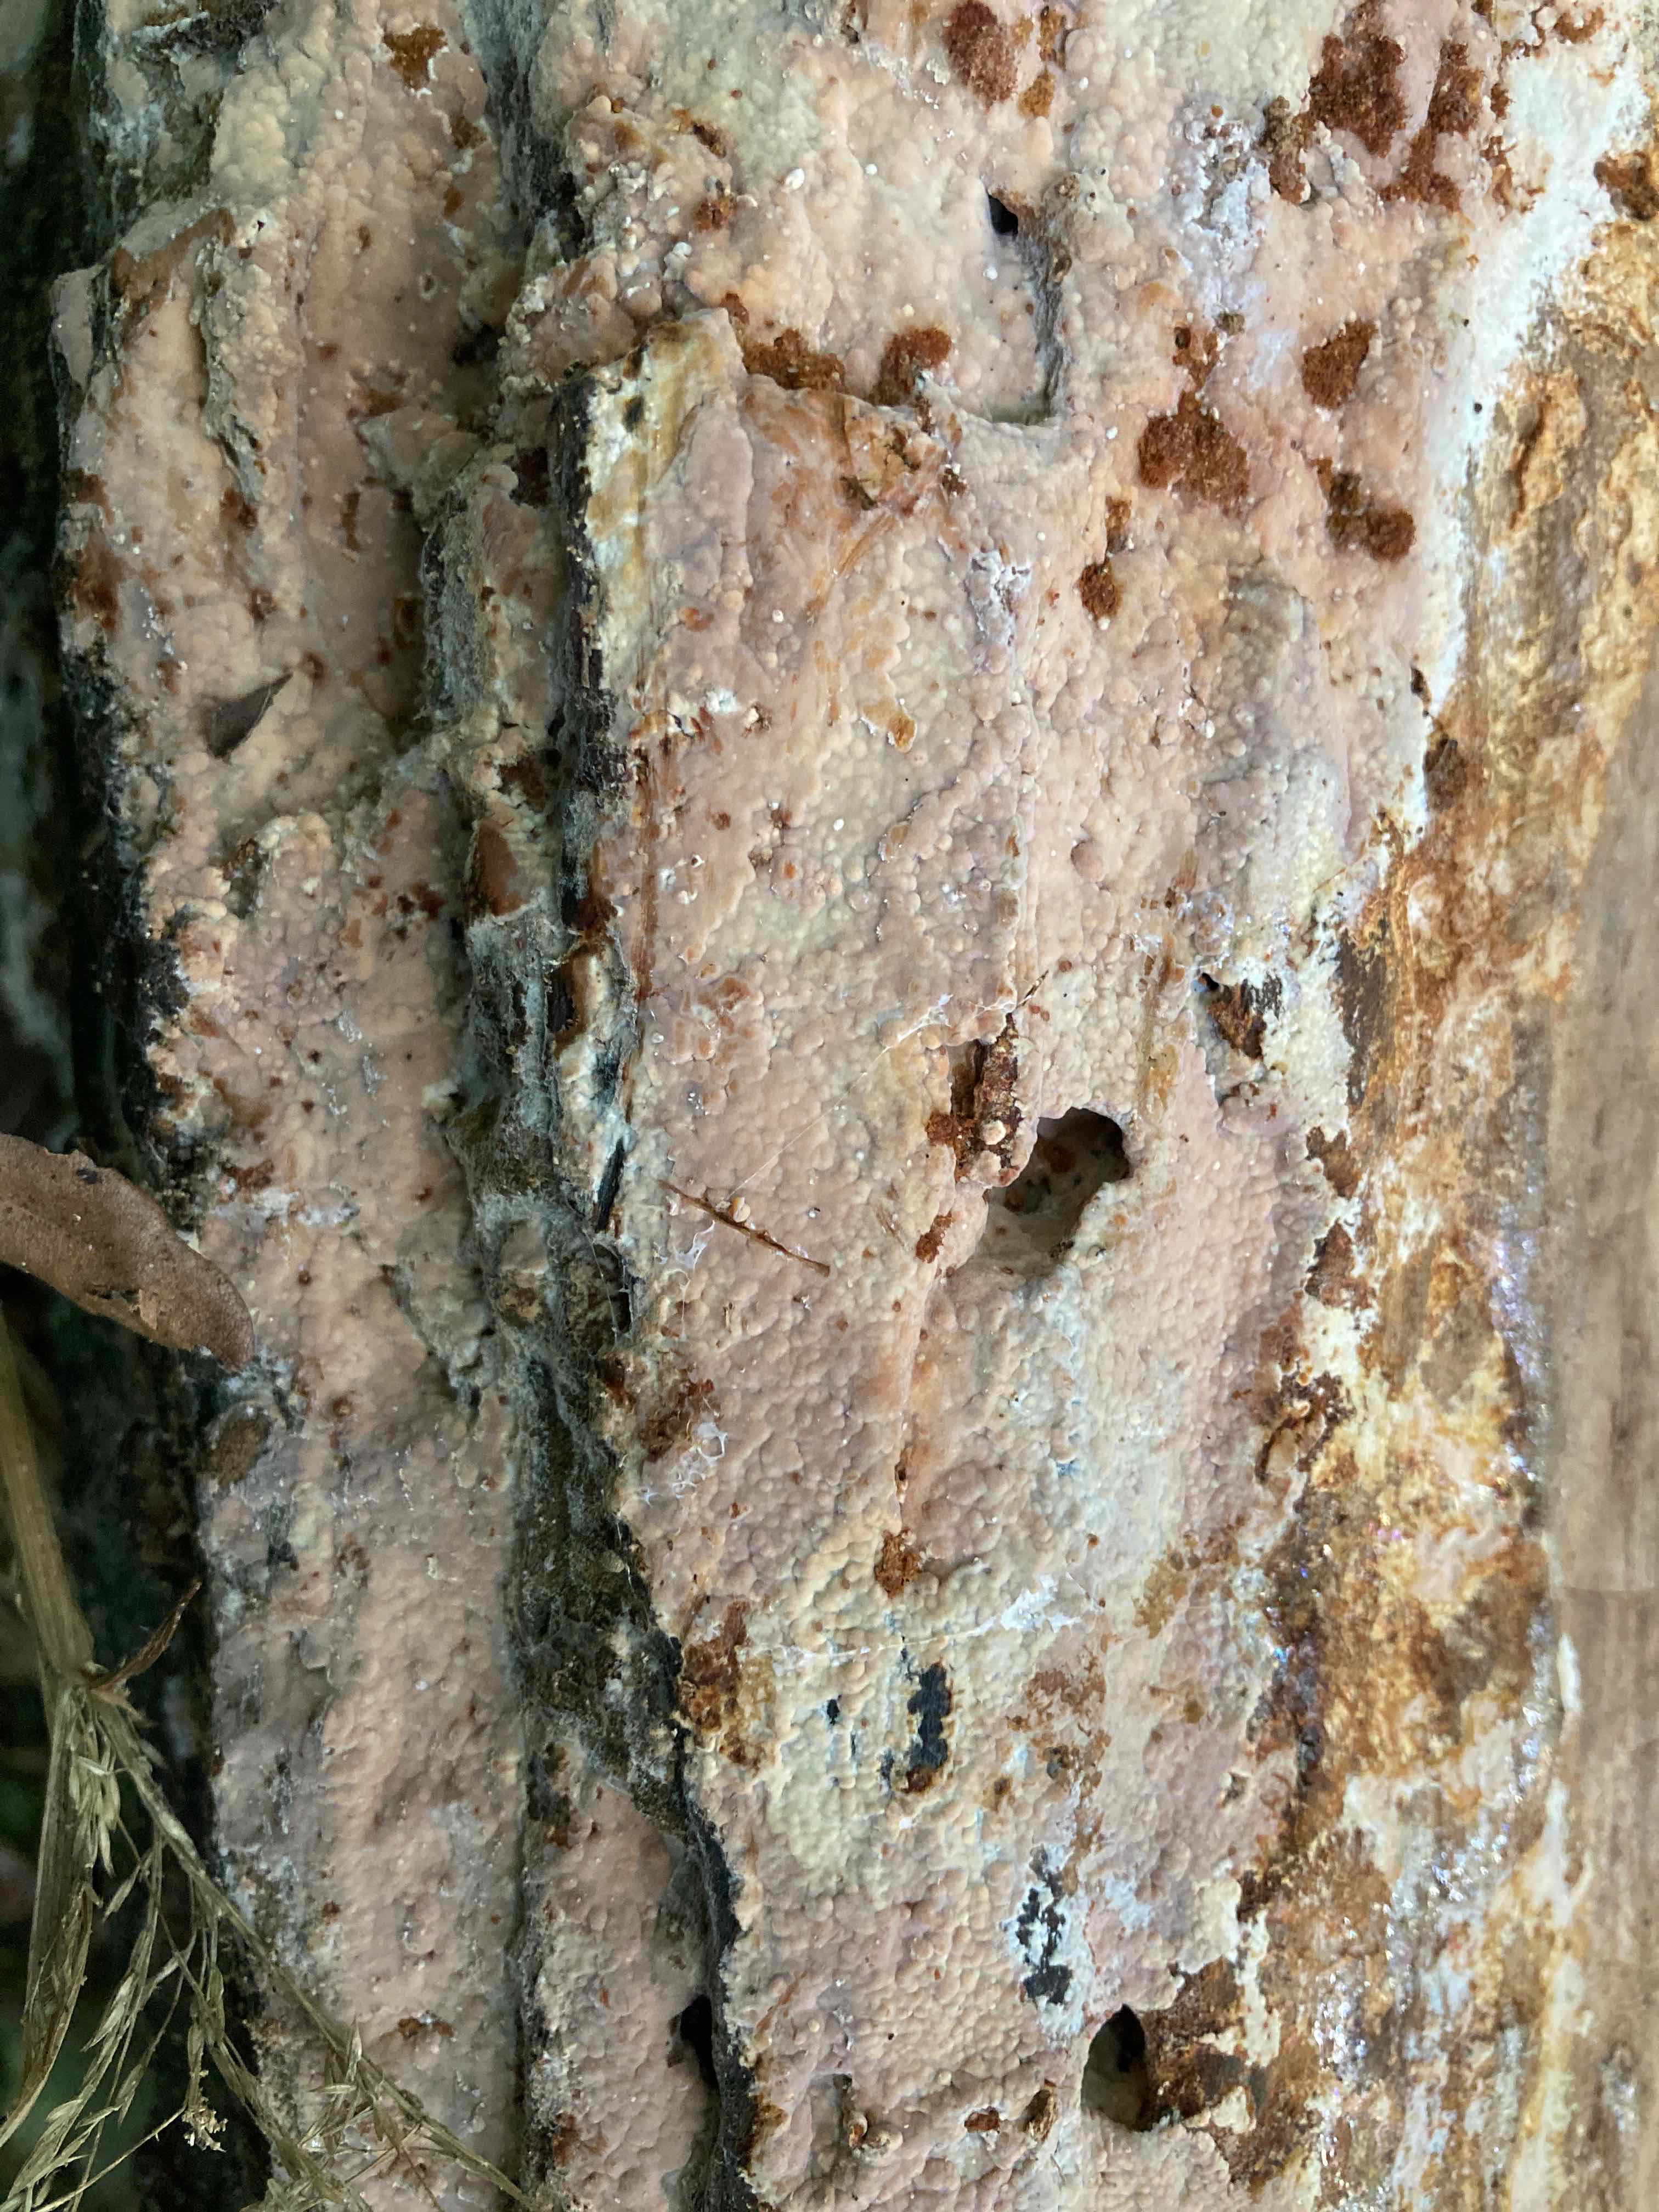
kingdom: Fungi
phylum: Basidiomycota
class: Agaricomycetes
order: Russulales
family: Peniophoraceae
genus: Gloiothele
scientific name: Gloiothele lactescens
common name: bitter olieskind
